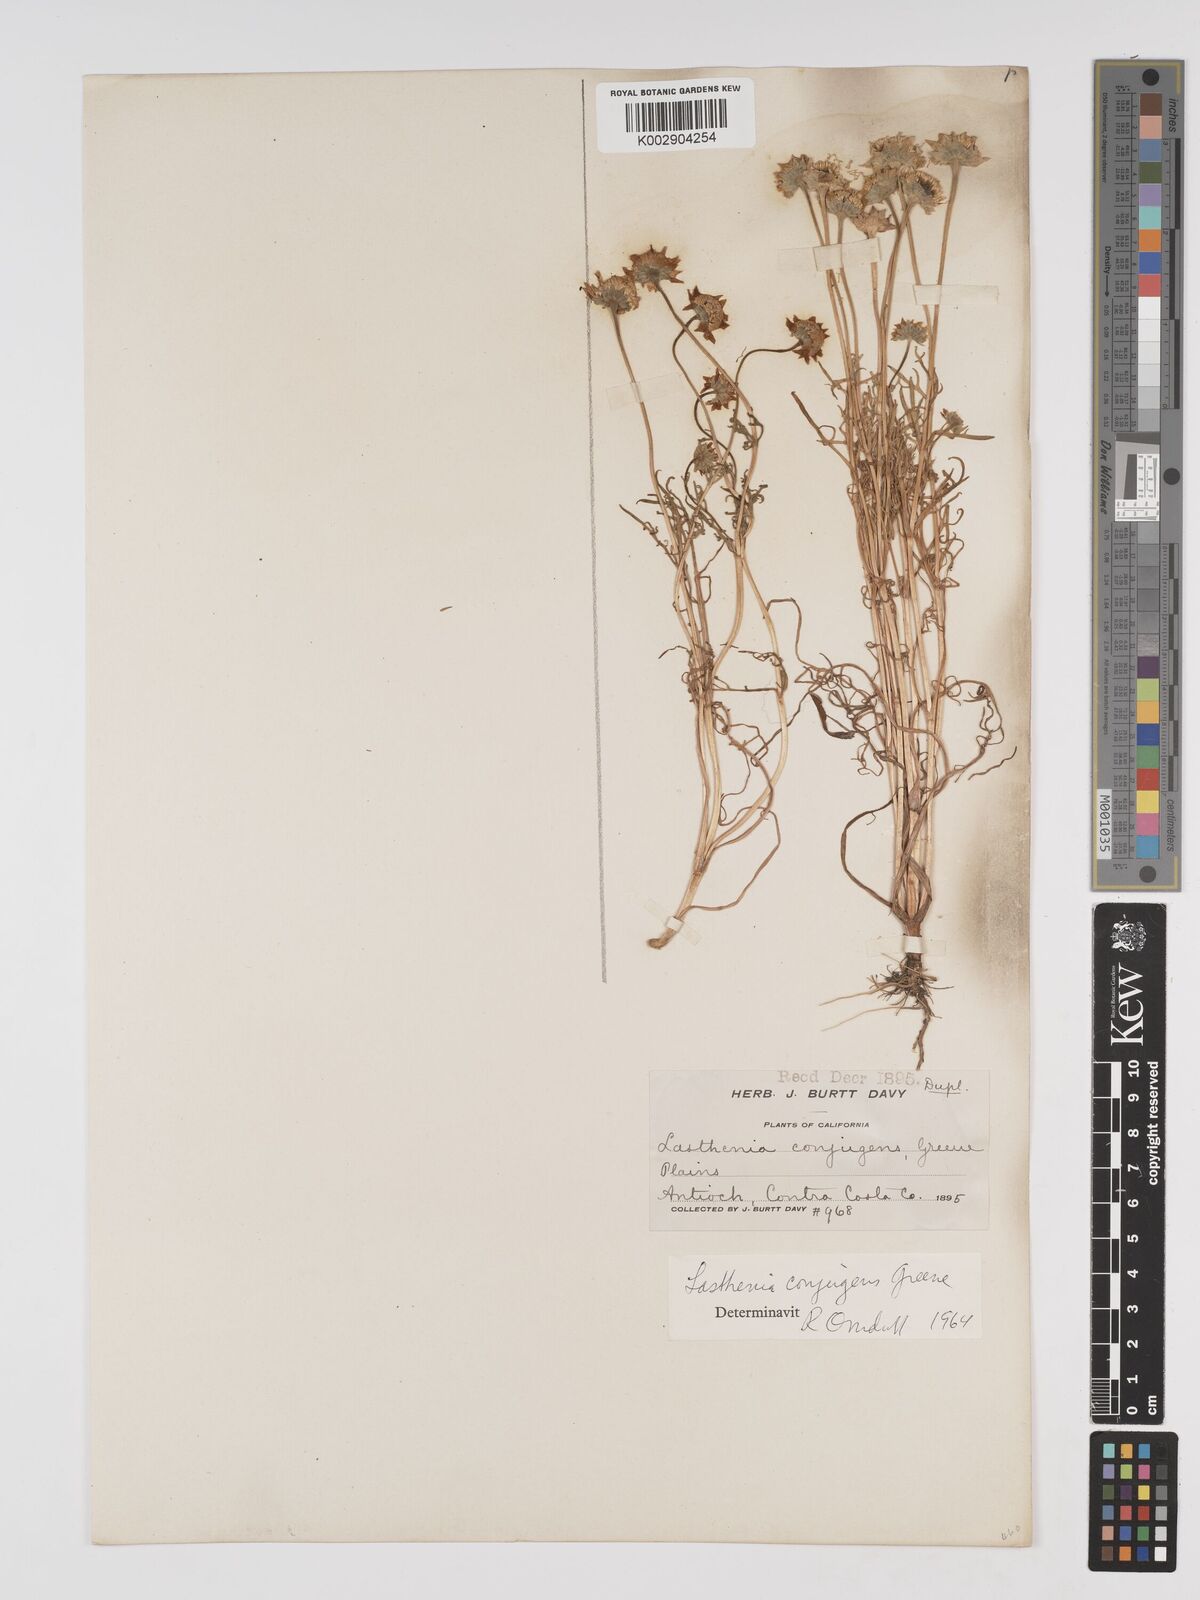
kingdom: Plantae
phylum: Tracheophyta
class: Magnoliopsida
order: Asterales
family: Asteraceae
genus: Lasthenia
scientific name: Lasthenia conjugens
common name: Contra costa goldfields
